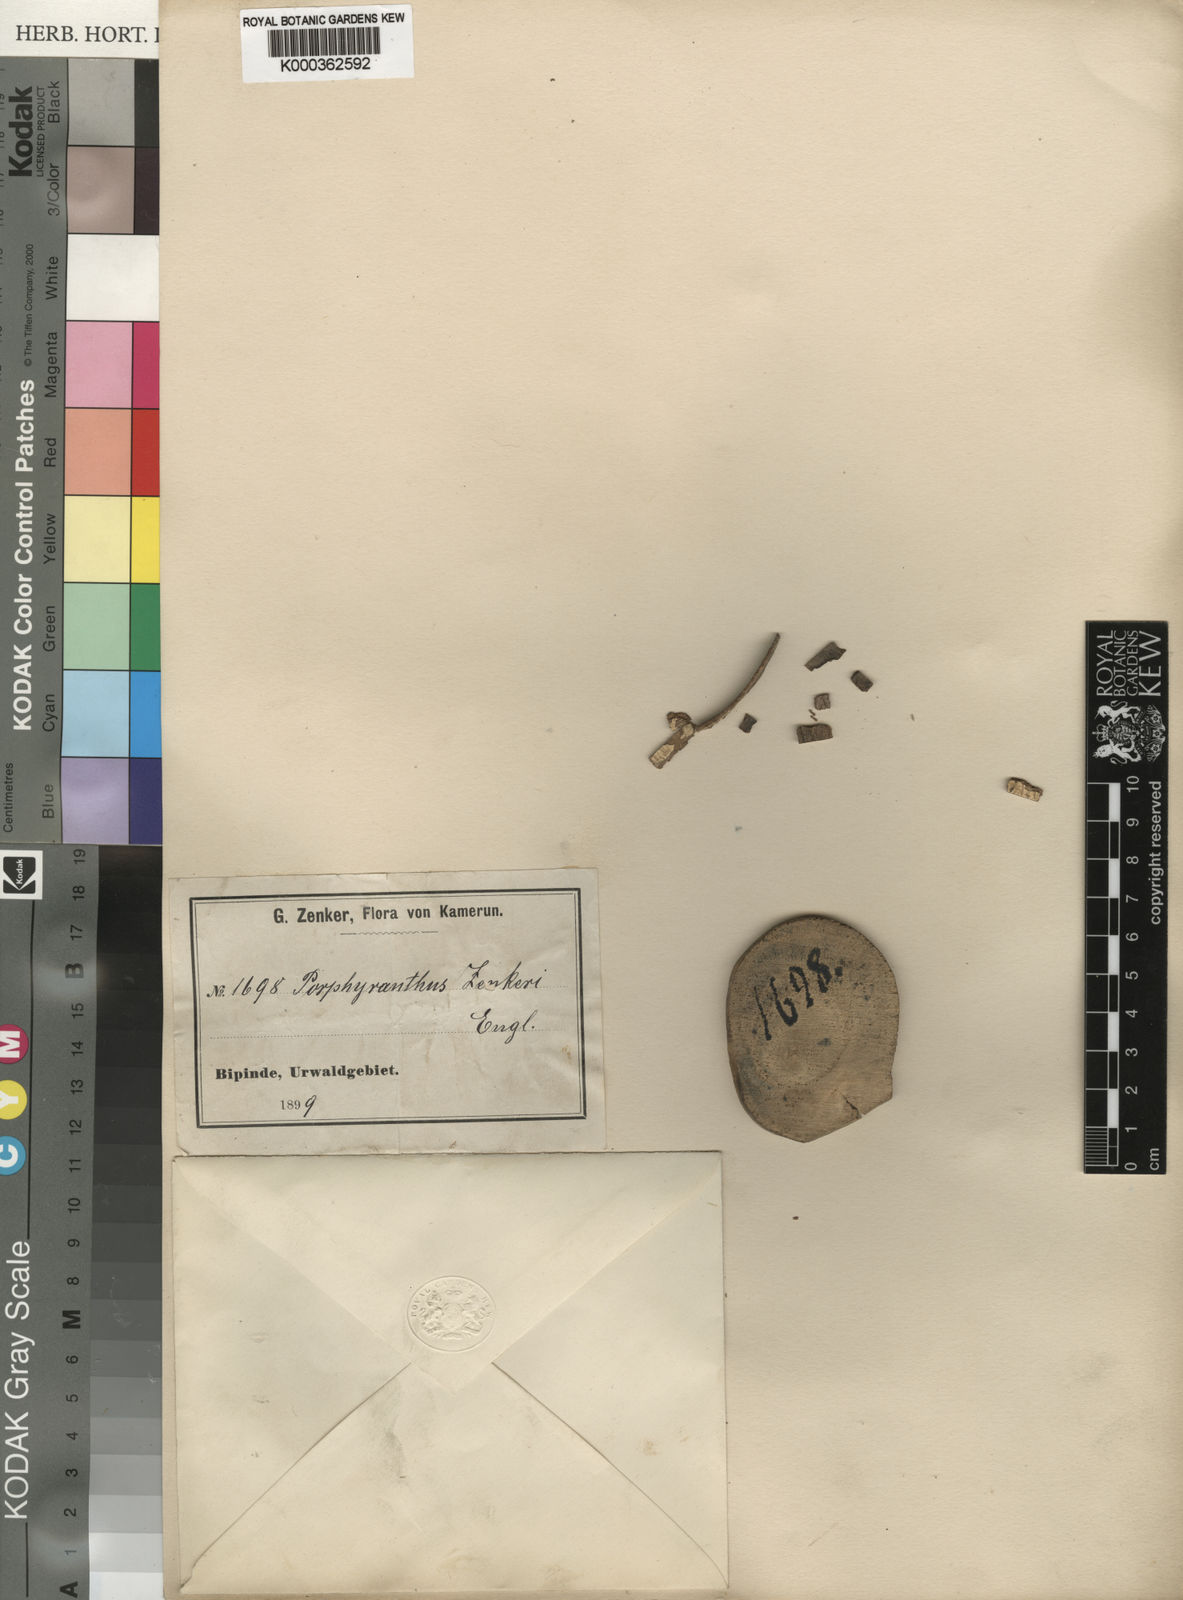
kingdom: Plantae
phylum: Tracheophyta
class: Magnoliopsida
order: Malpighiales
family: Pandaceae
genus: Microdesmis
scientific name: Microdesmis
